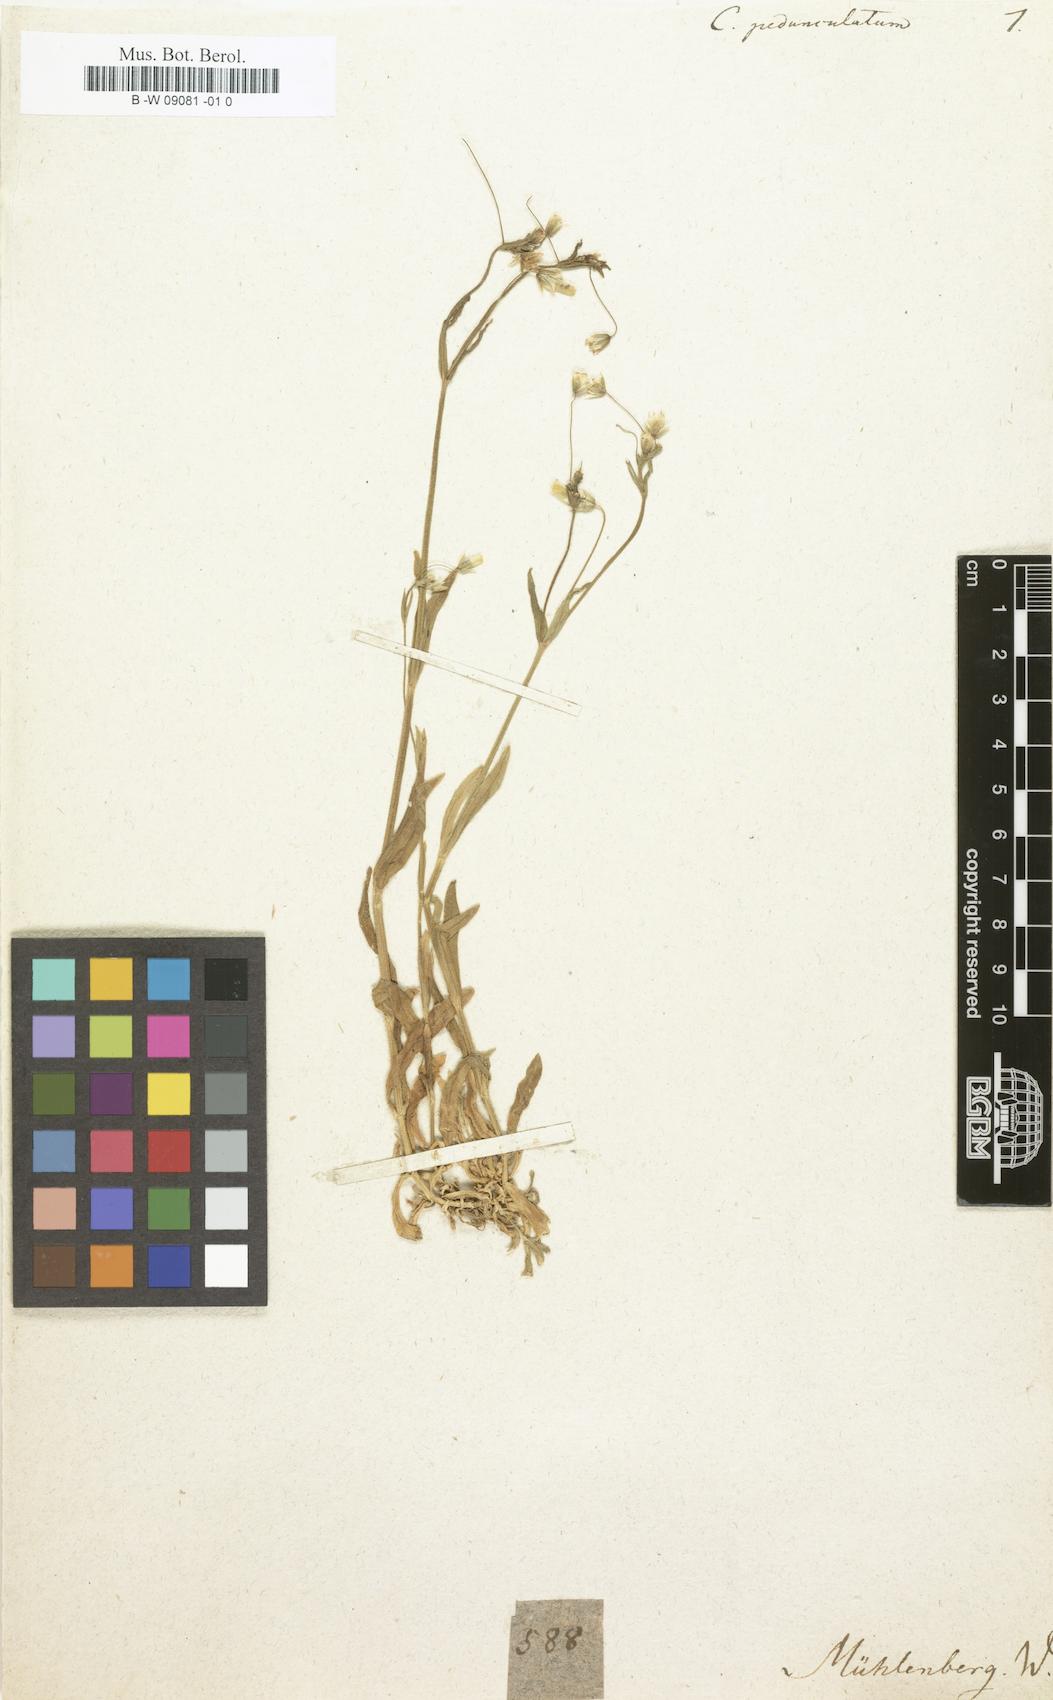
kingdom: Plantae
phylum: Tracheophyta
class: Magnoliopsida
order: Caryophyllales
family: Caryophyllaceae
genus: Cerastium
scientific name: Cerastium pedunculatum
